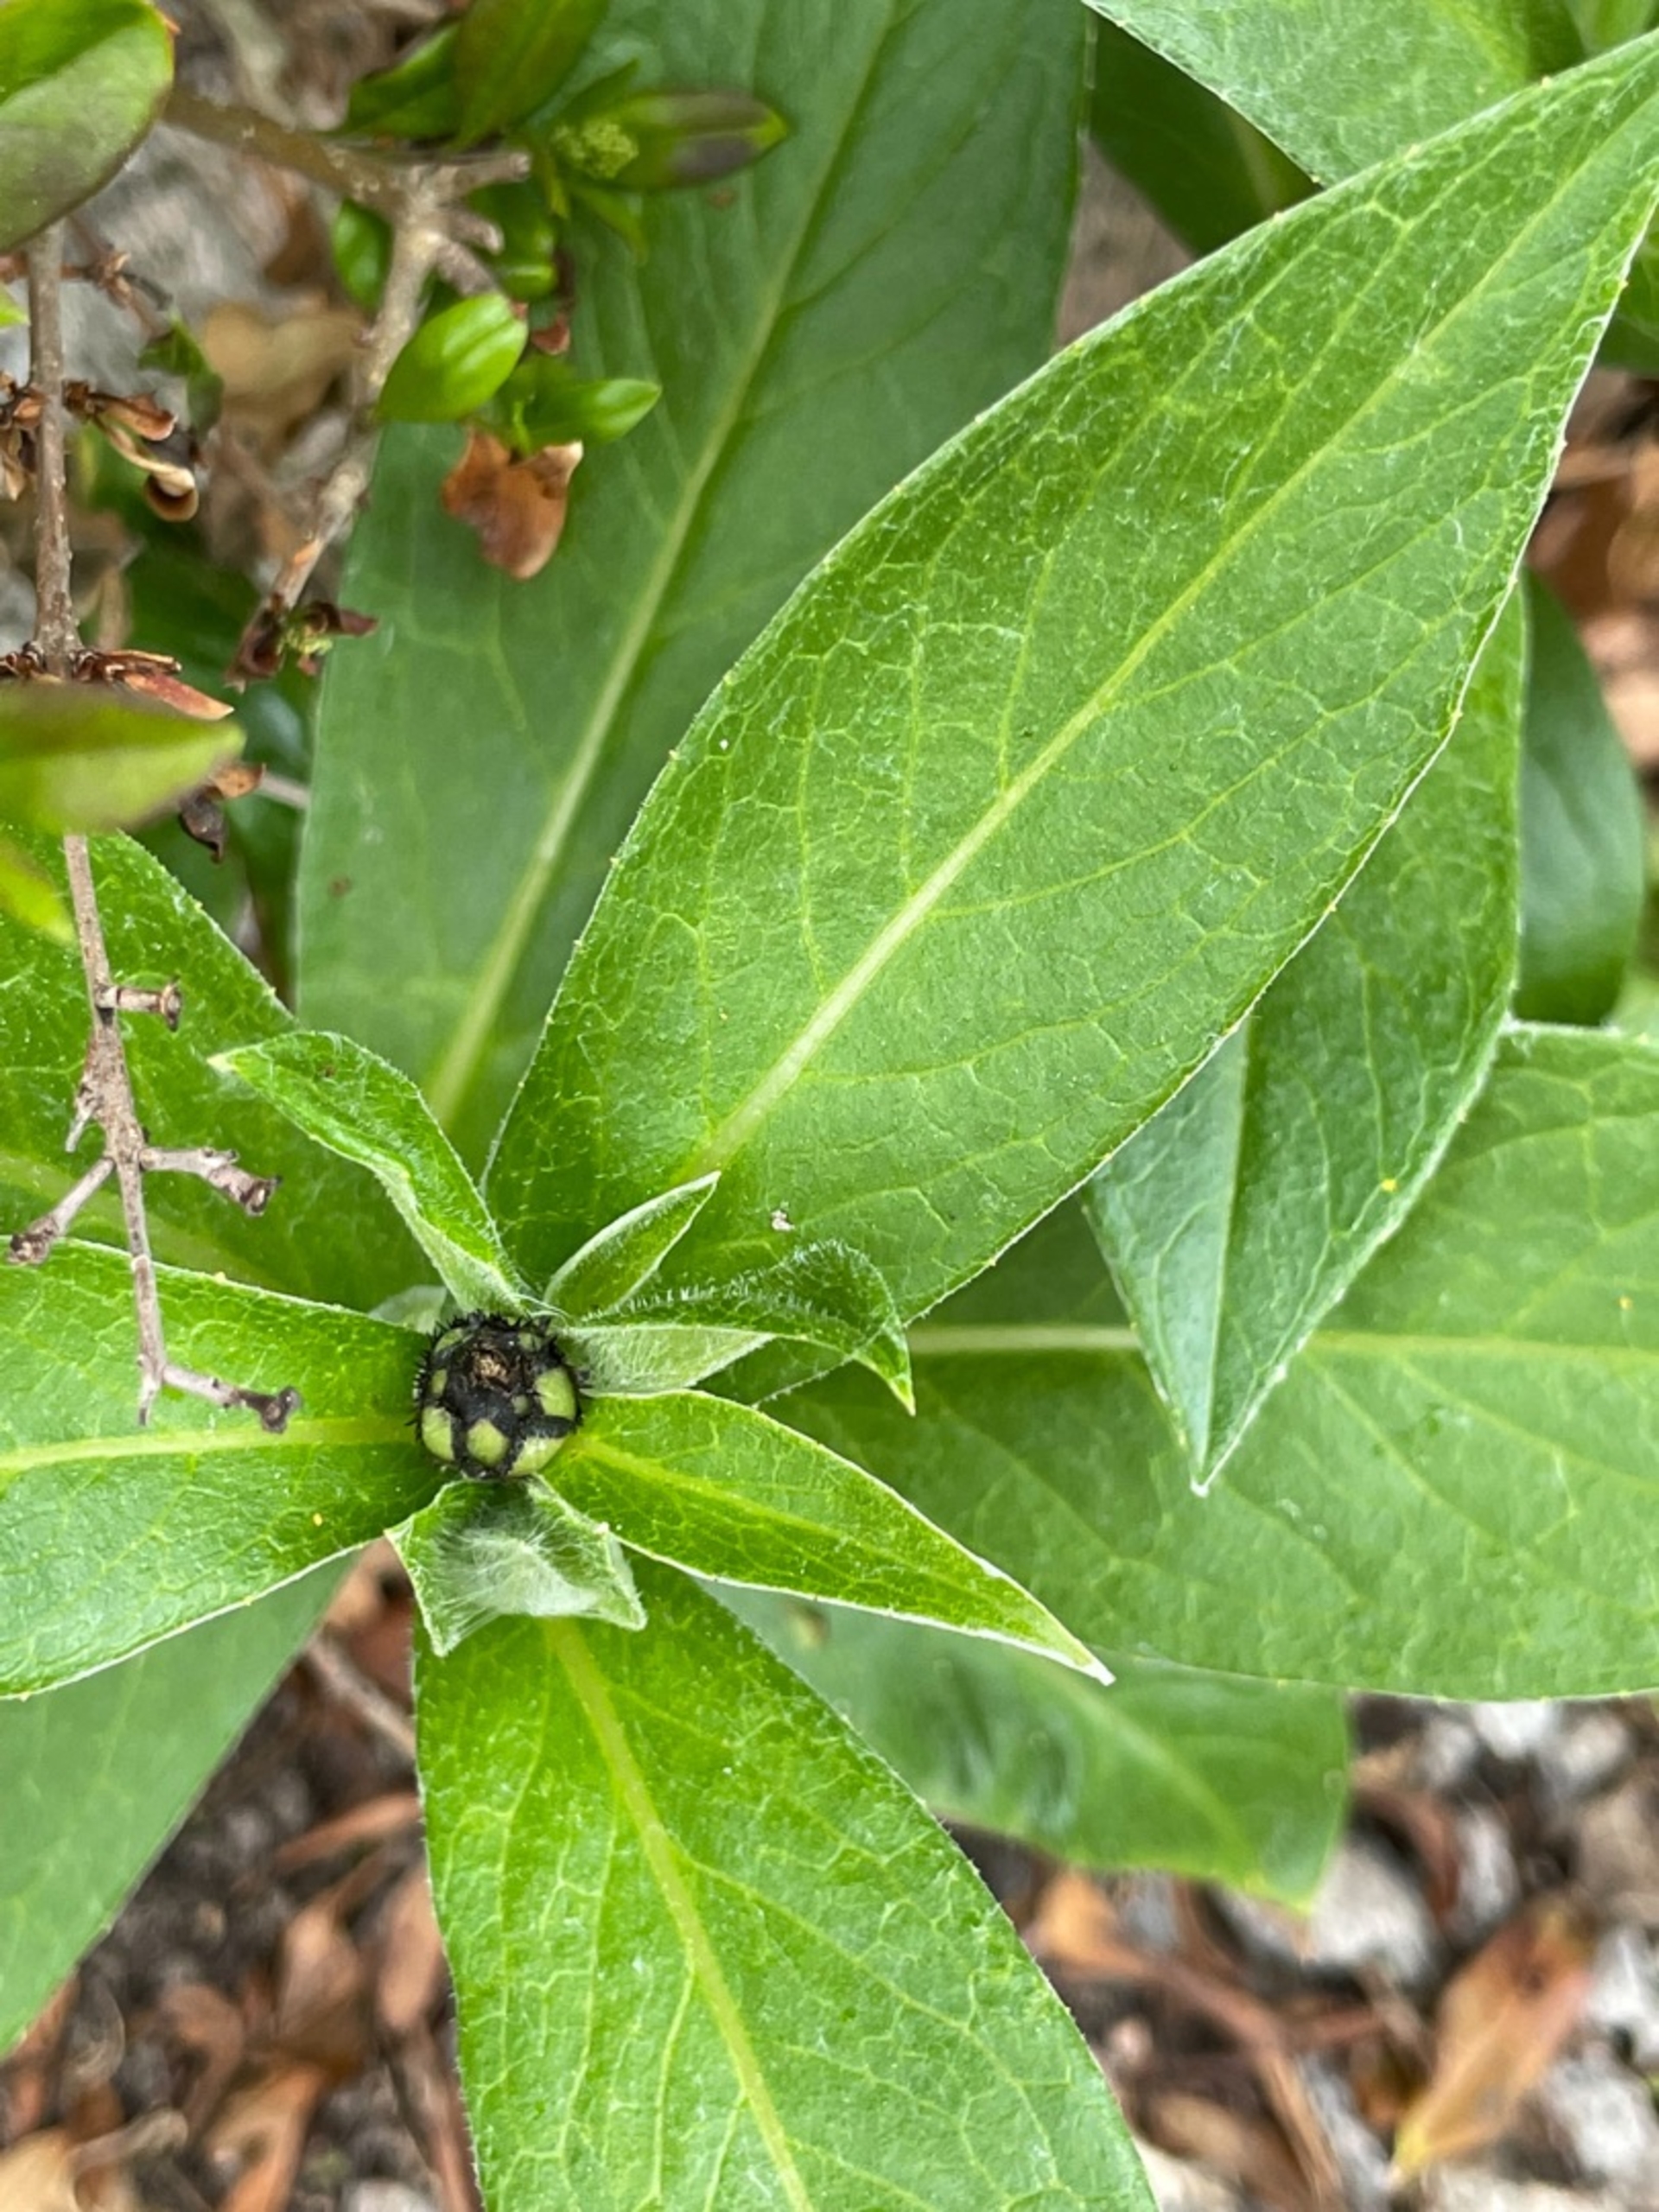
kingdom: Plantae
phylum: Tracheophyta
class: Magnoliopsida
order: Asterales
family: Asteraceae
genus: Centaurea
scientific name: Centaurea montana
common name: Bjerg-knopurt
